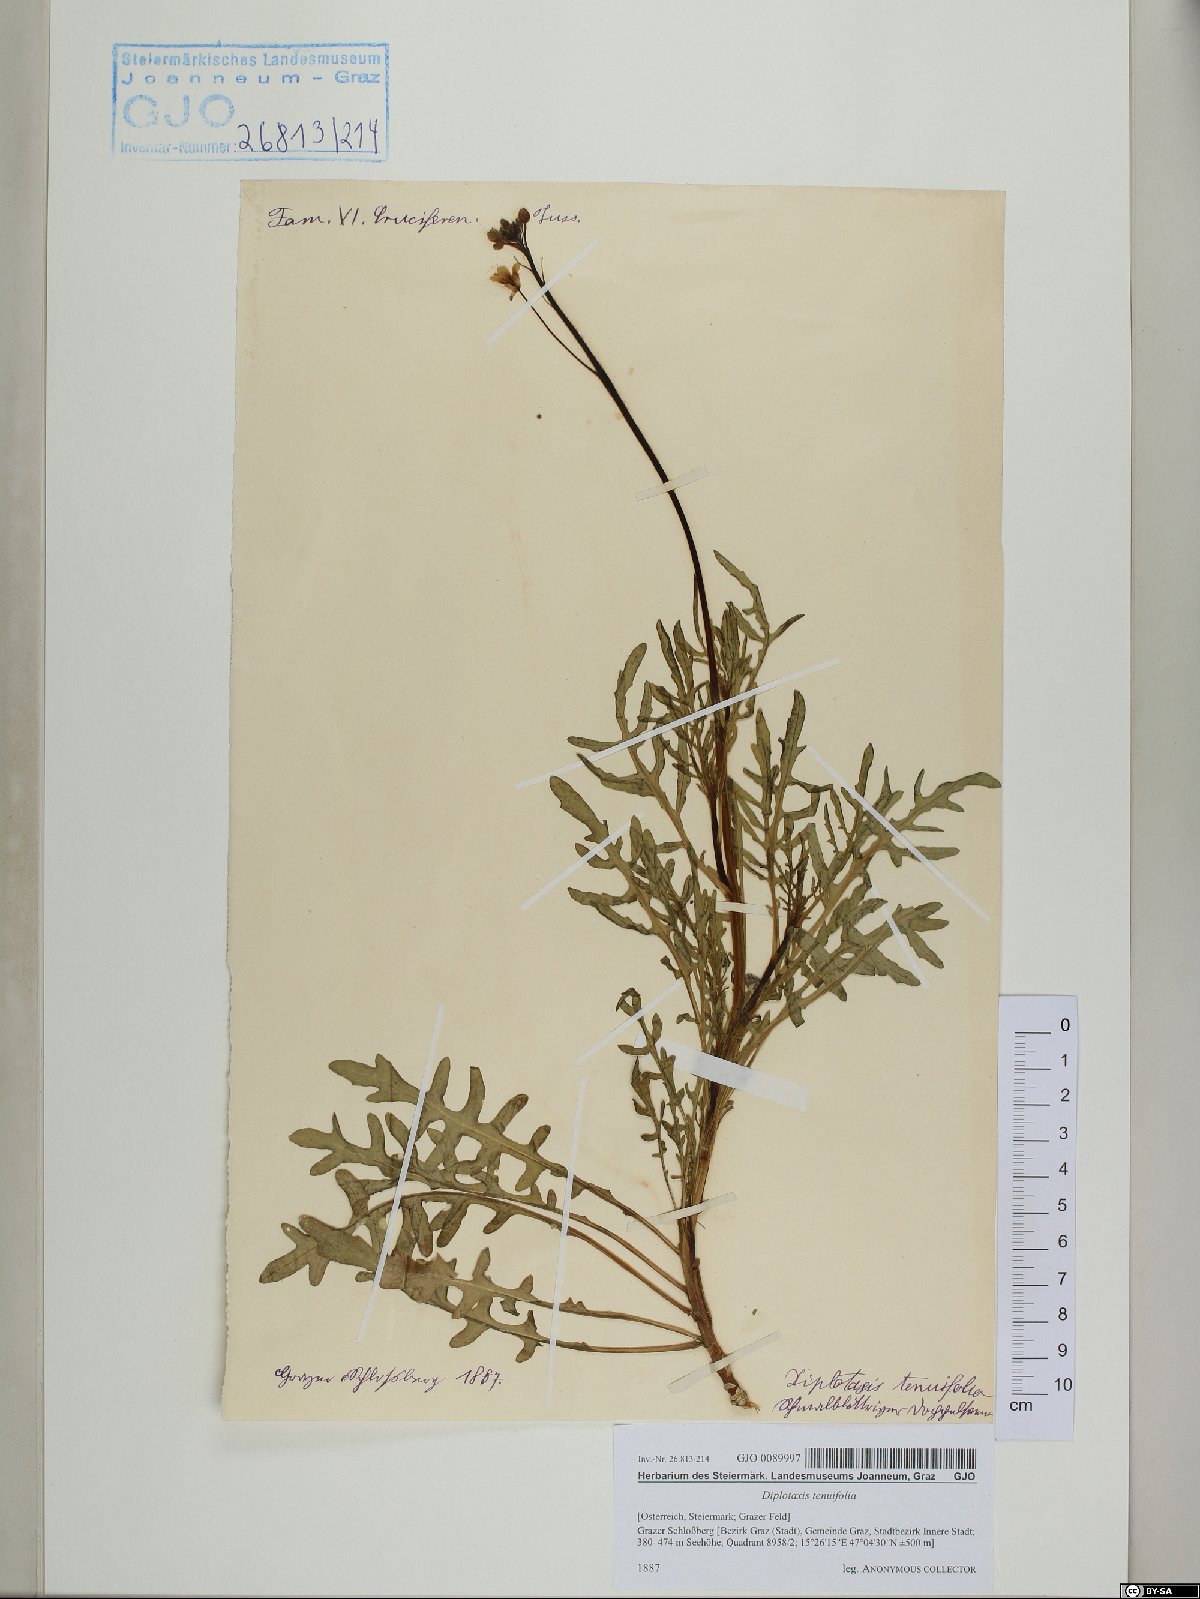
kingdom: Plantae
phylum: Tracheophyta
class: Magnoliopsida
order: Brassicales
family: Brassicaceae
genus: Diplotaxis
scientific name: Diplotaxis tenuifolia
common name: Perennial wall-rocket
